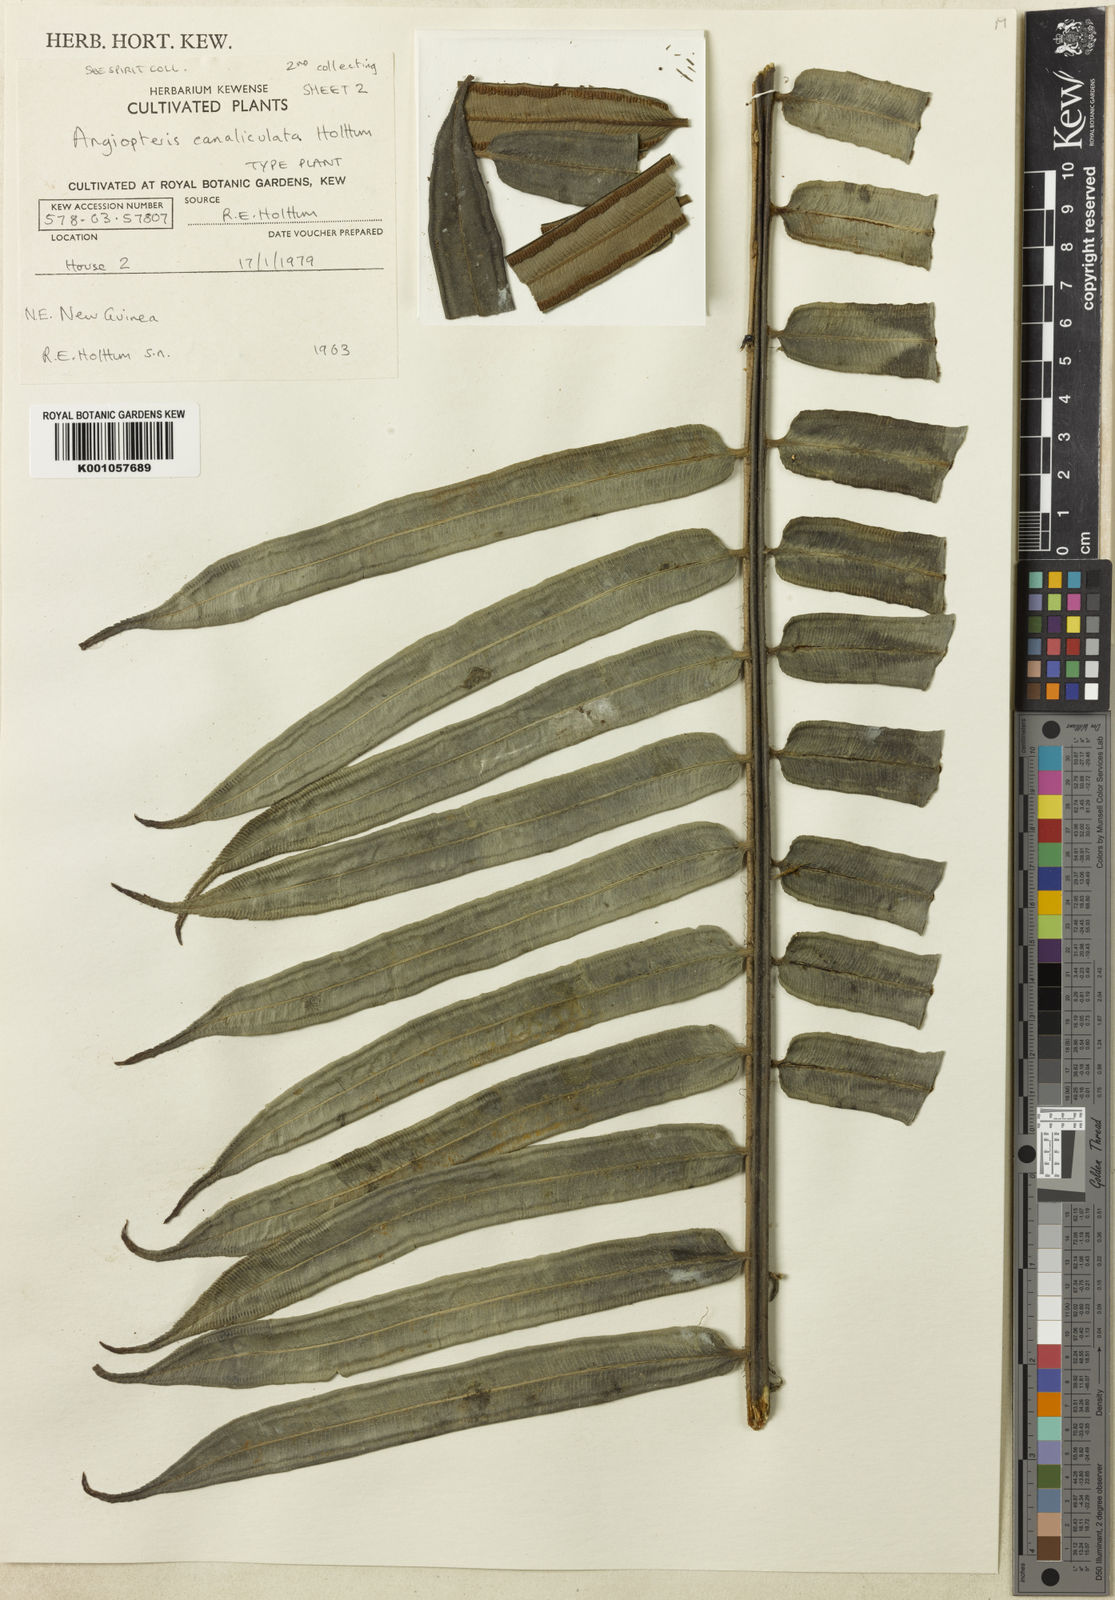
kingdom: Plantae
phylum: Tracheophyta
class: Polypodiopsida
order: Marattiales
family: Marattiaceae
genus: Angiopteris
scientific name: Angiopteris evecta
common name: Mule's-foot fern
